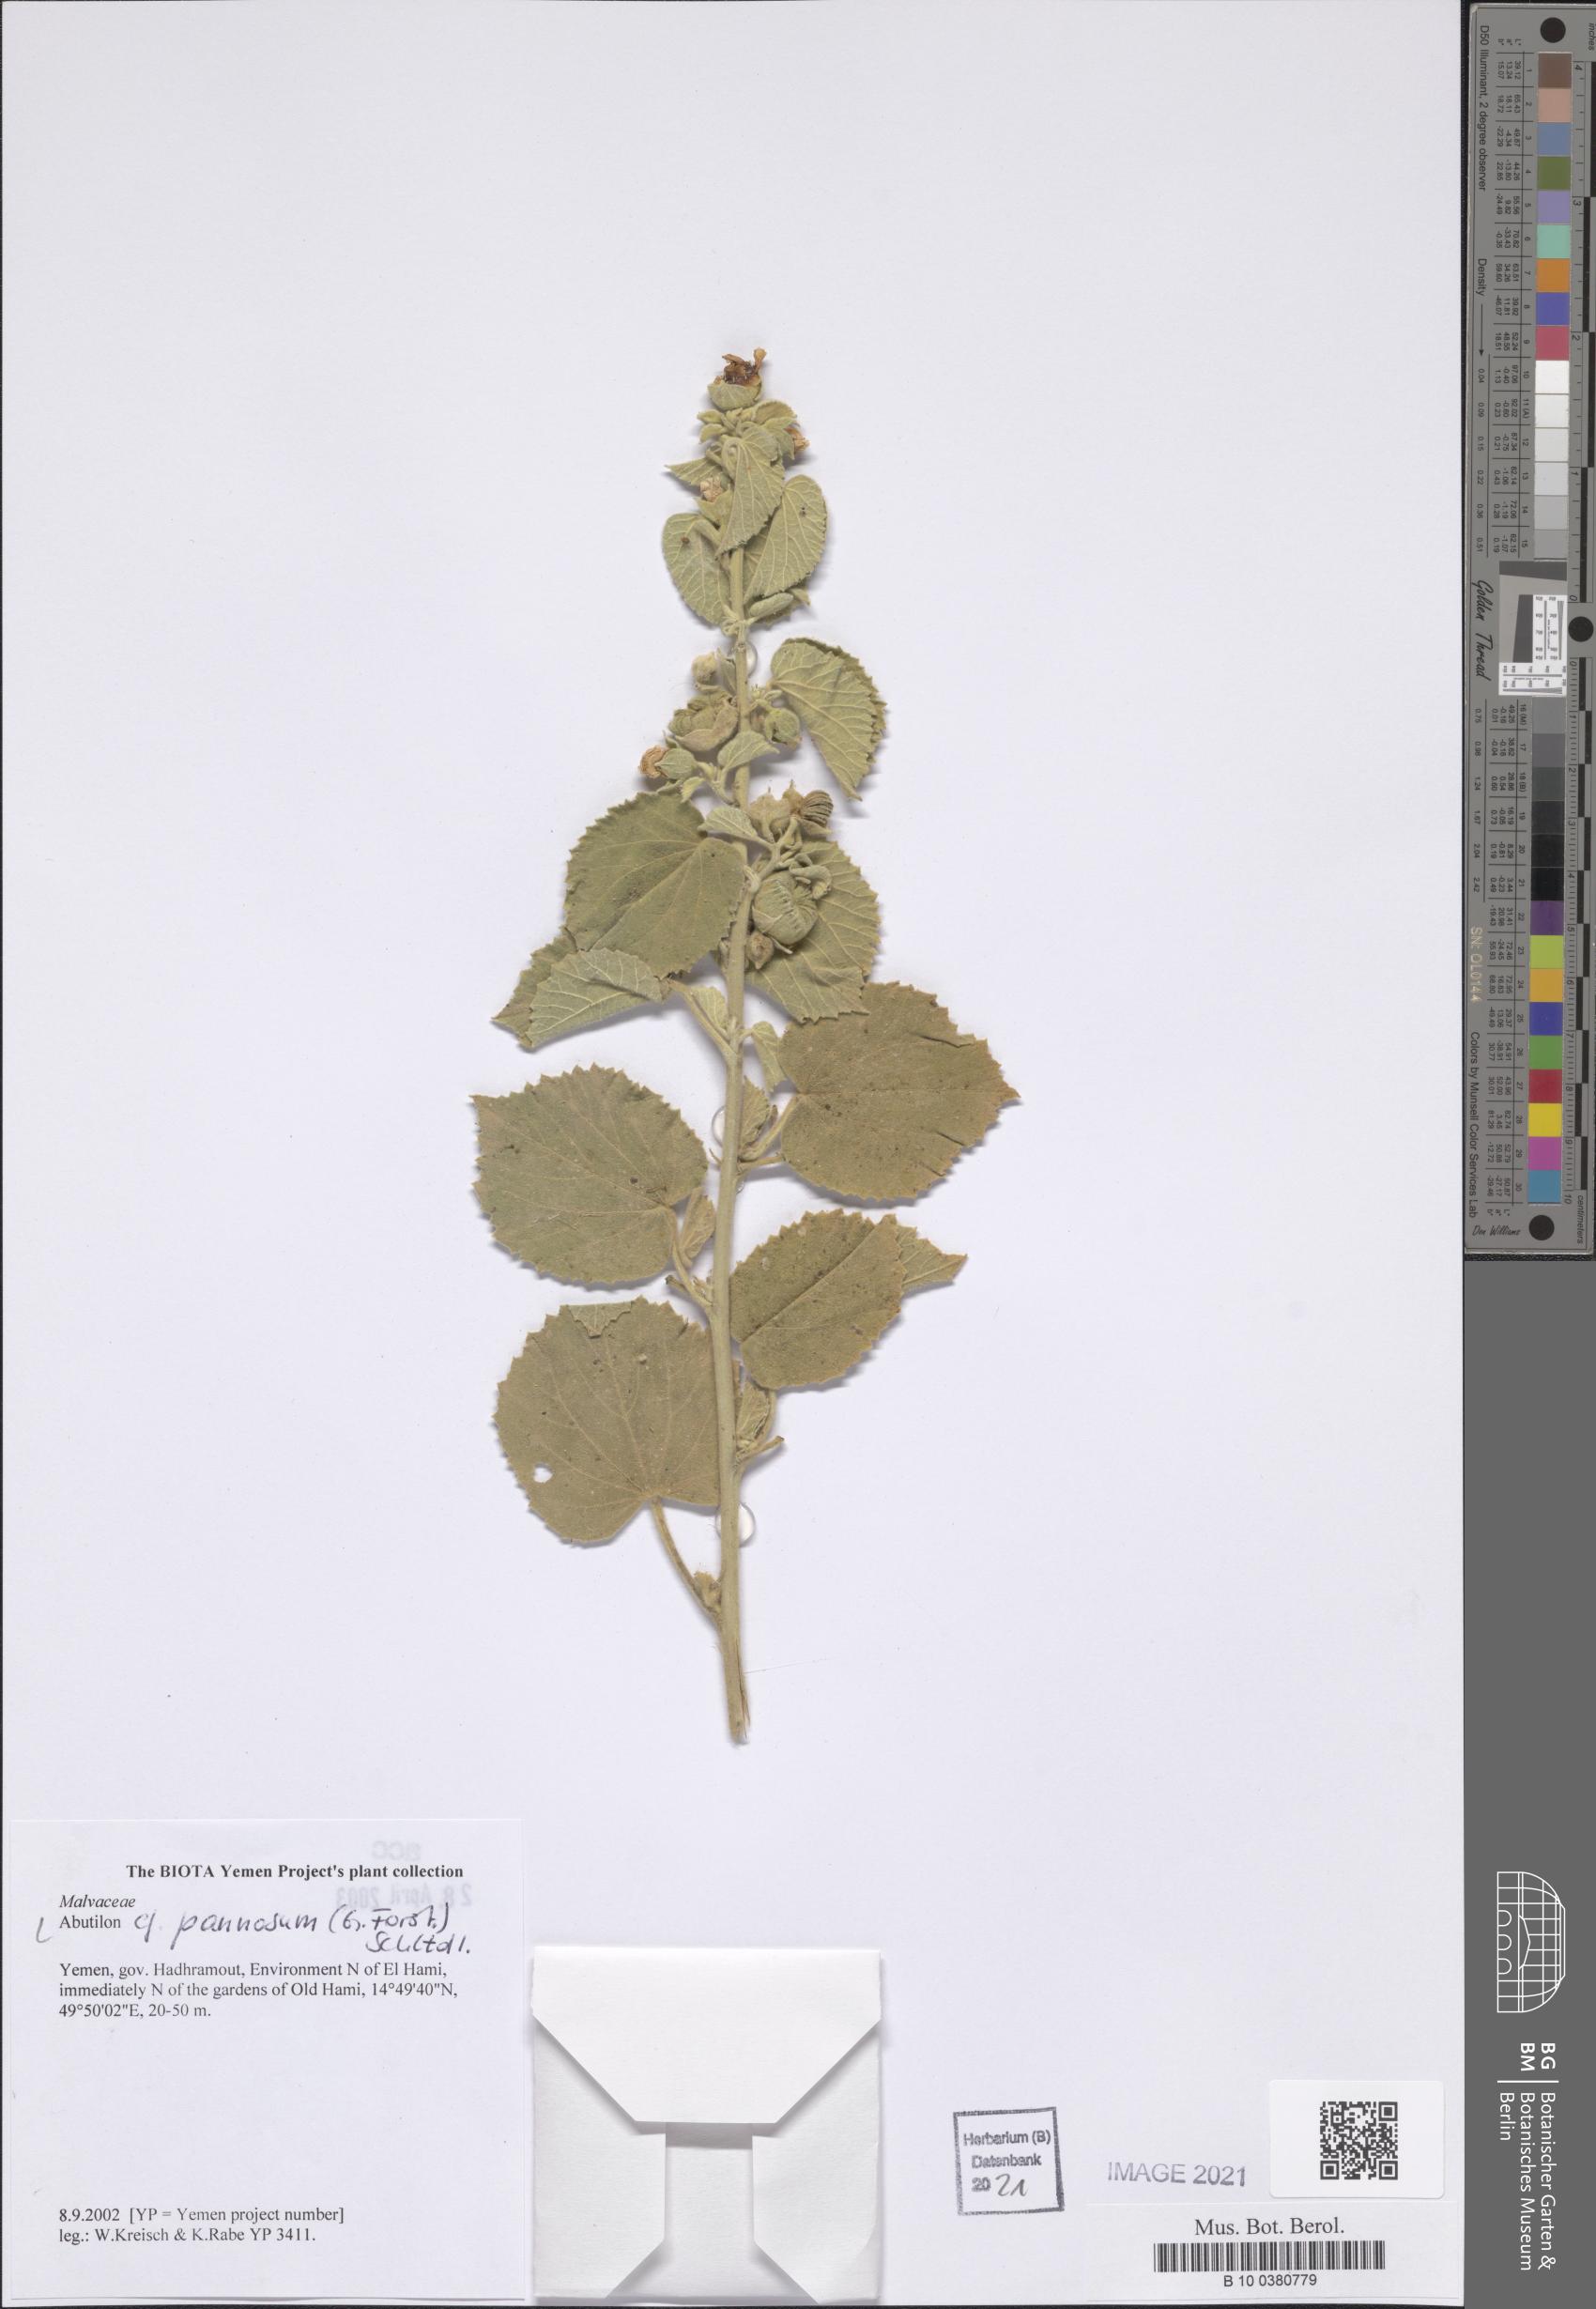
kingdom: Plantae
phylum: Tracheophyta
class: Magnoliopsida
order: Malvales
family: Malvaceae
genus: Abutilon
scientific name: Abutilon pannosum
